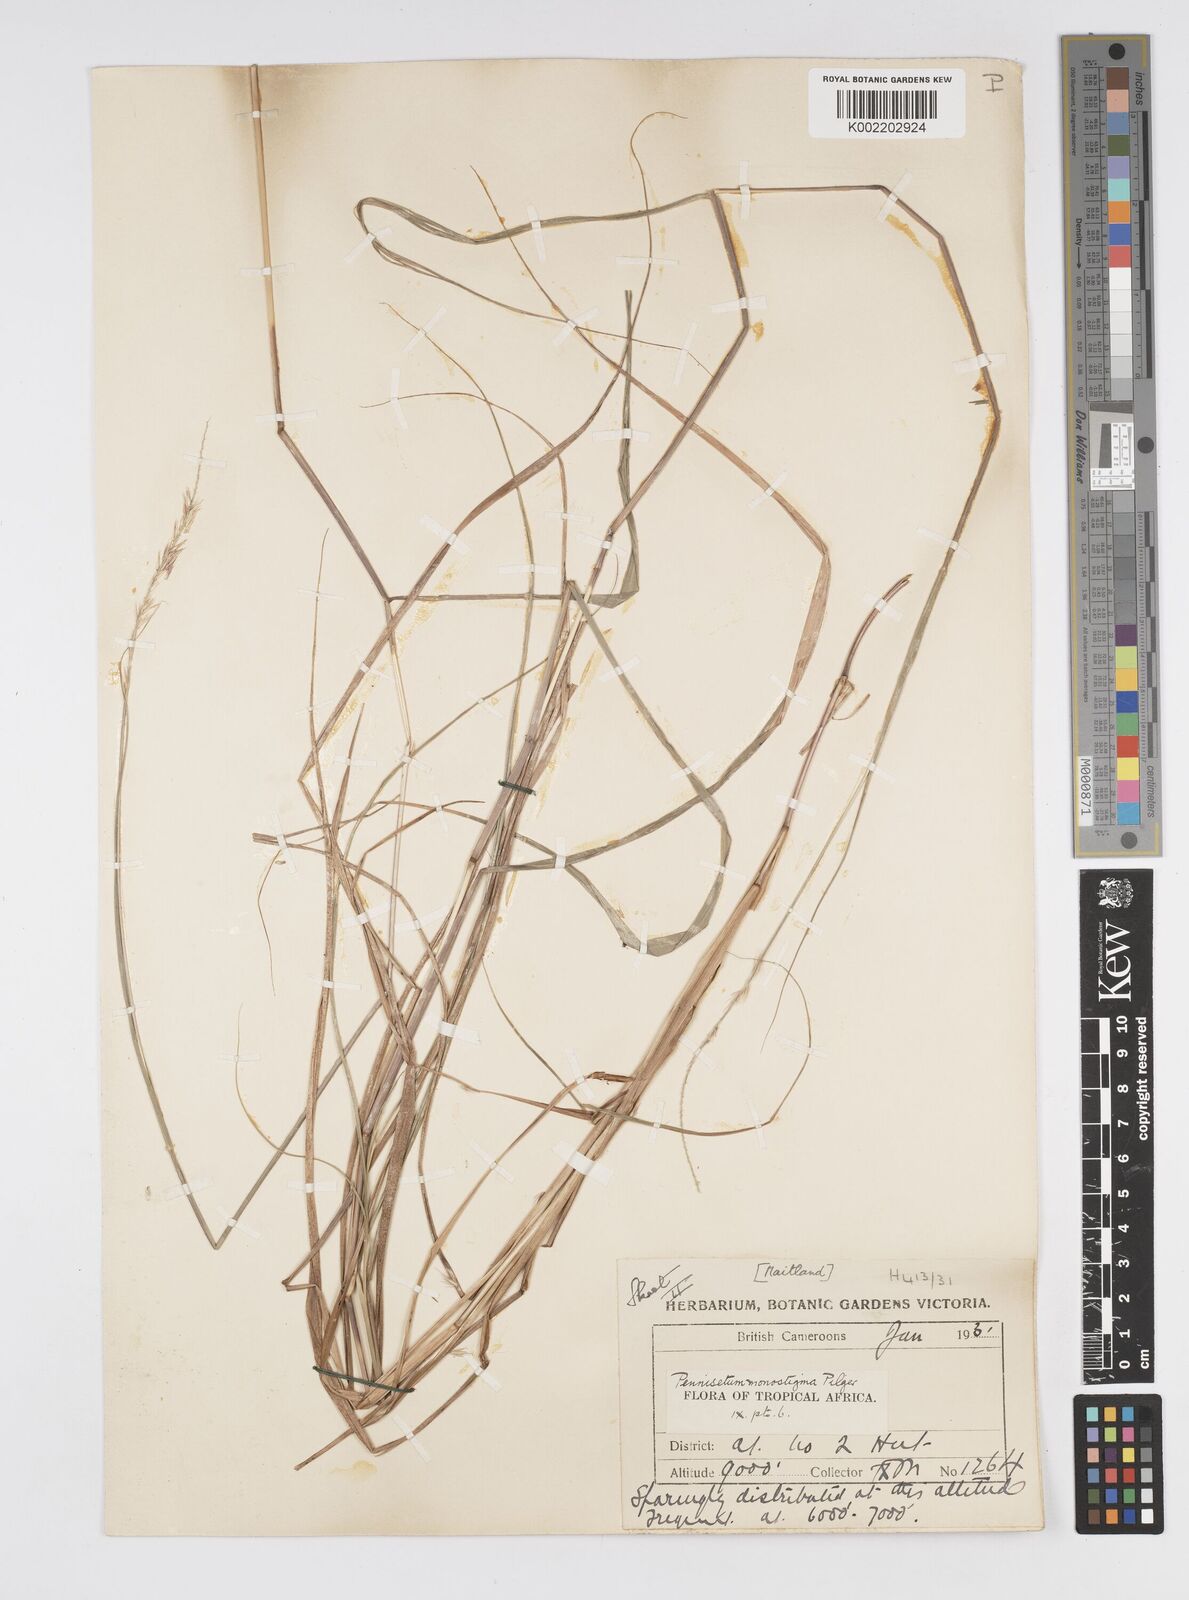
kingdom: Plantae
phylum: Tracheophyta
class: Liliopsida
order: Poales
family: Poaceae
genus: Cenchrus
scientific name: Cenchrus monostigma
